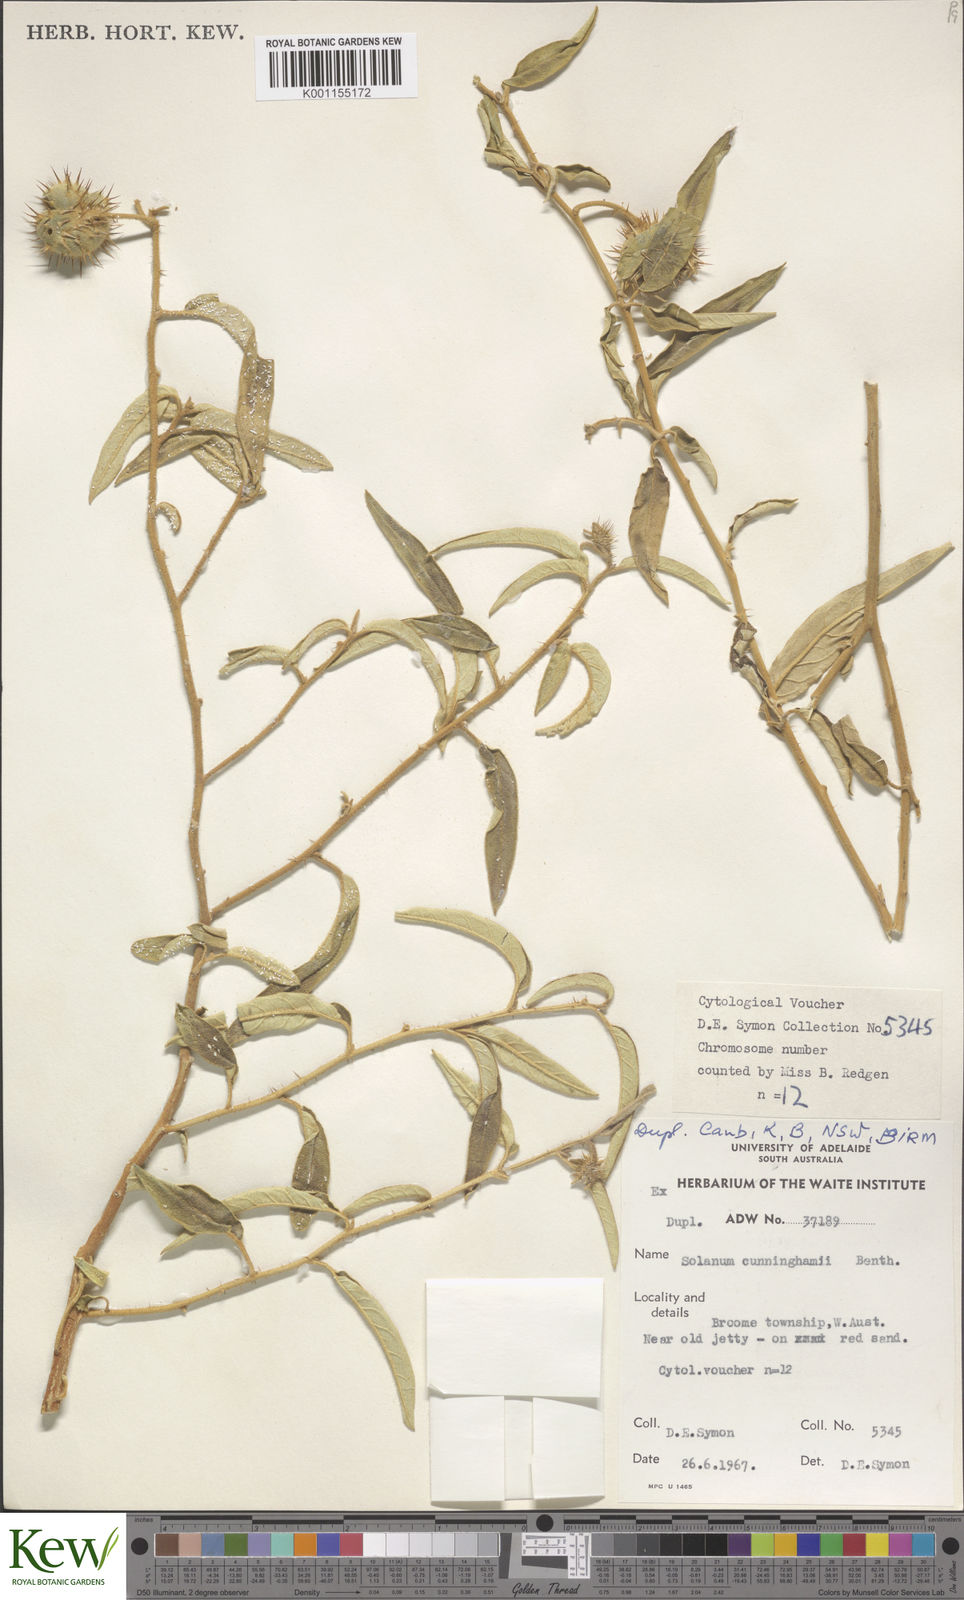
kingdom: Plantae
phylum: Tracheophyta
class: Magnoliopsida
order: Solanales
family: Solanaceae
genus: Solanum
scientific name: Solanum cunninghamii
